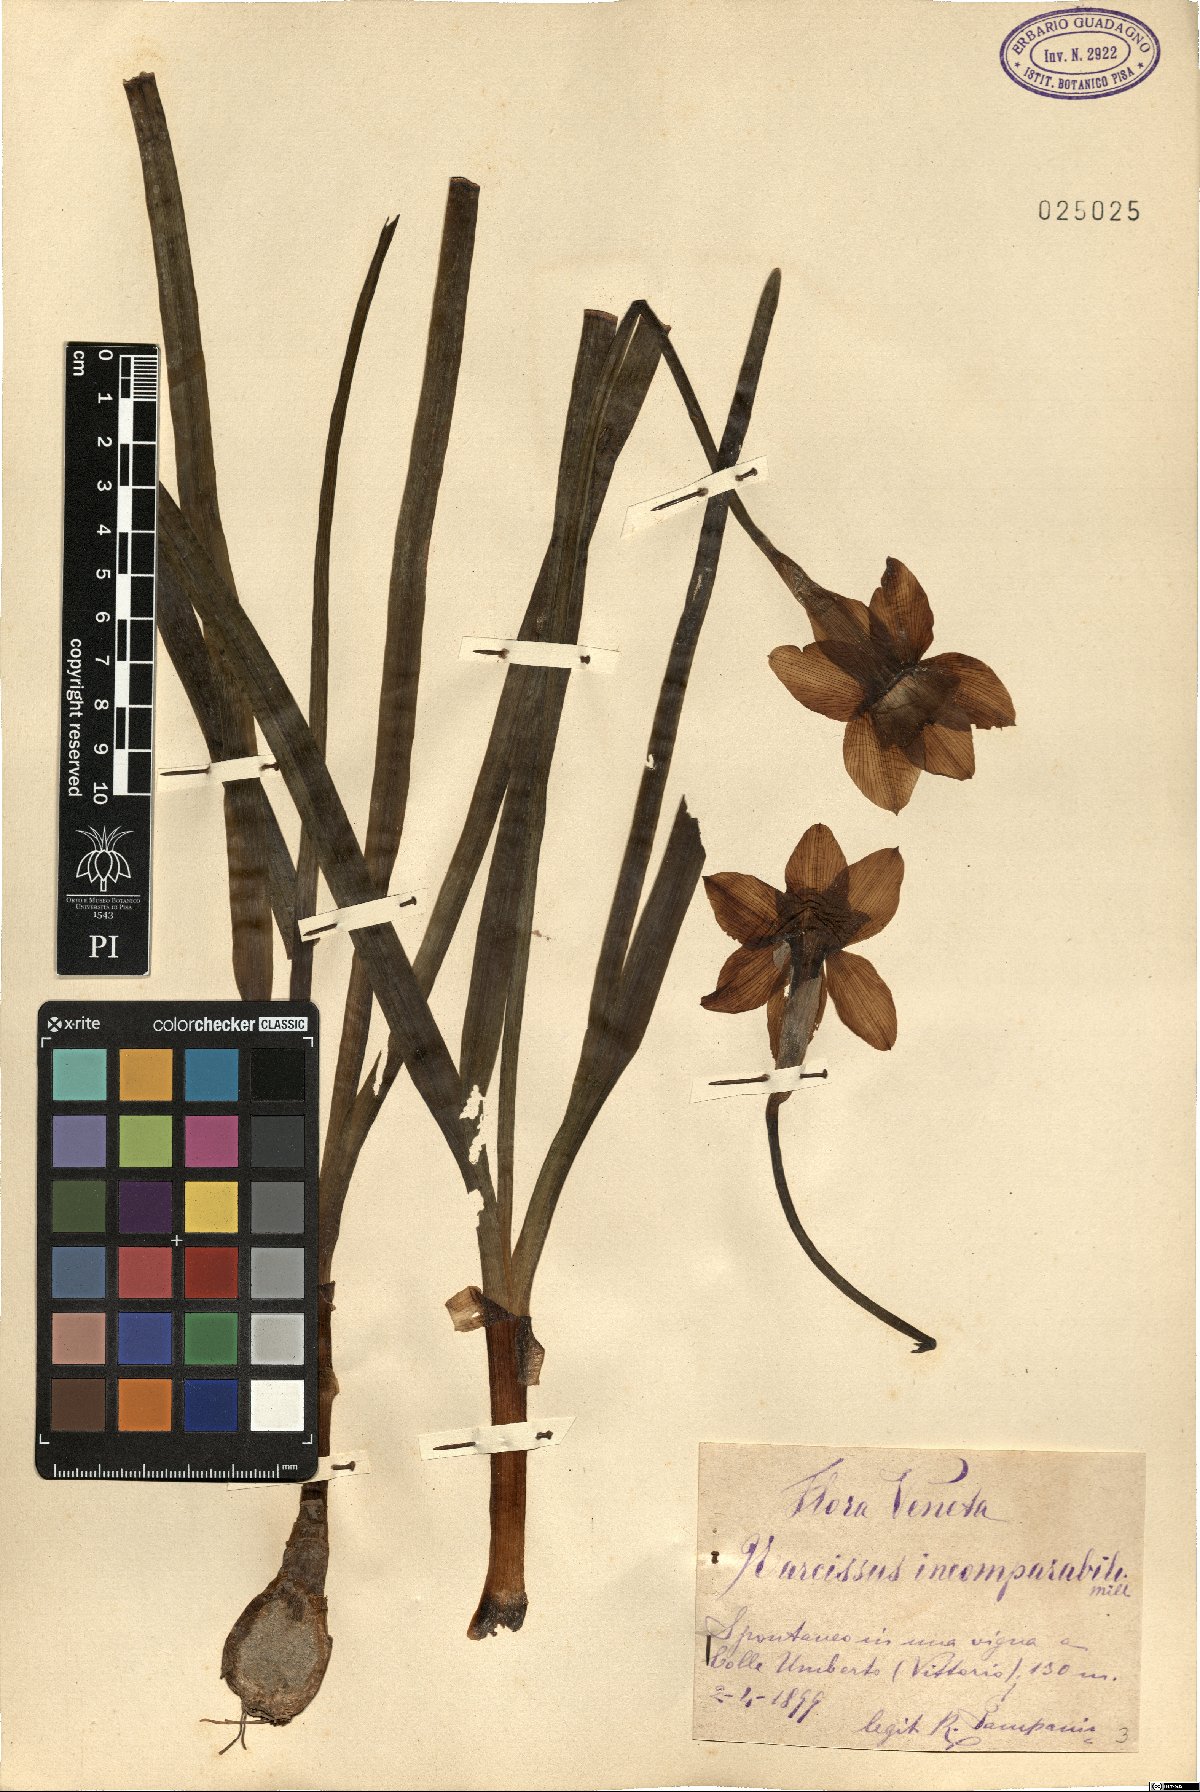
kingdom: Plantae
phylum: Tracheophyta
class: Liliopsida
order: Asparagales
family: Amaryllidaceae
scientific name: Amaryllidaceae
